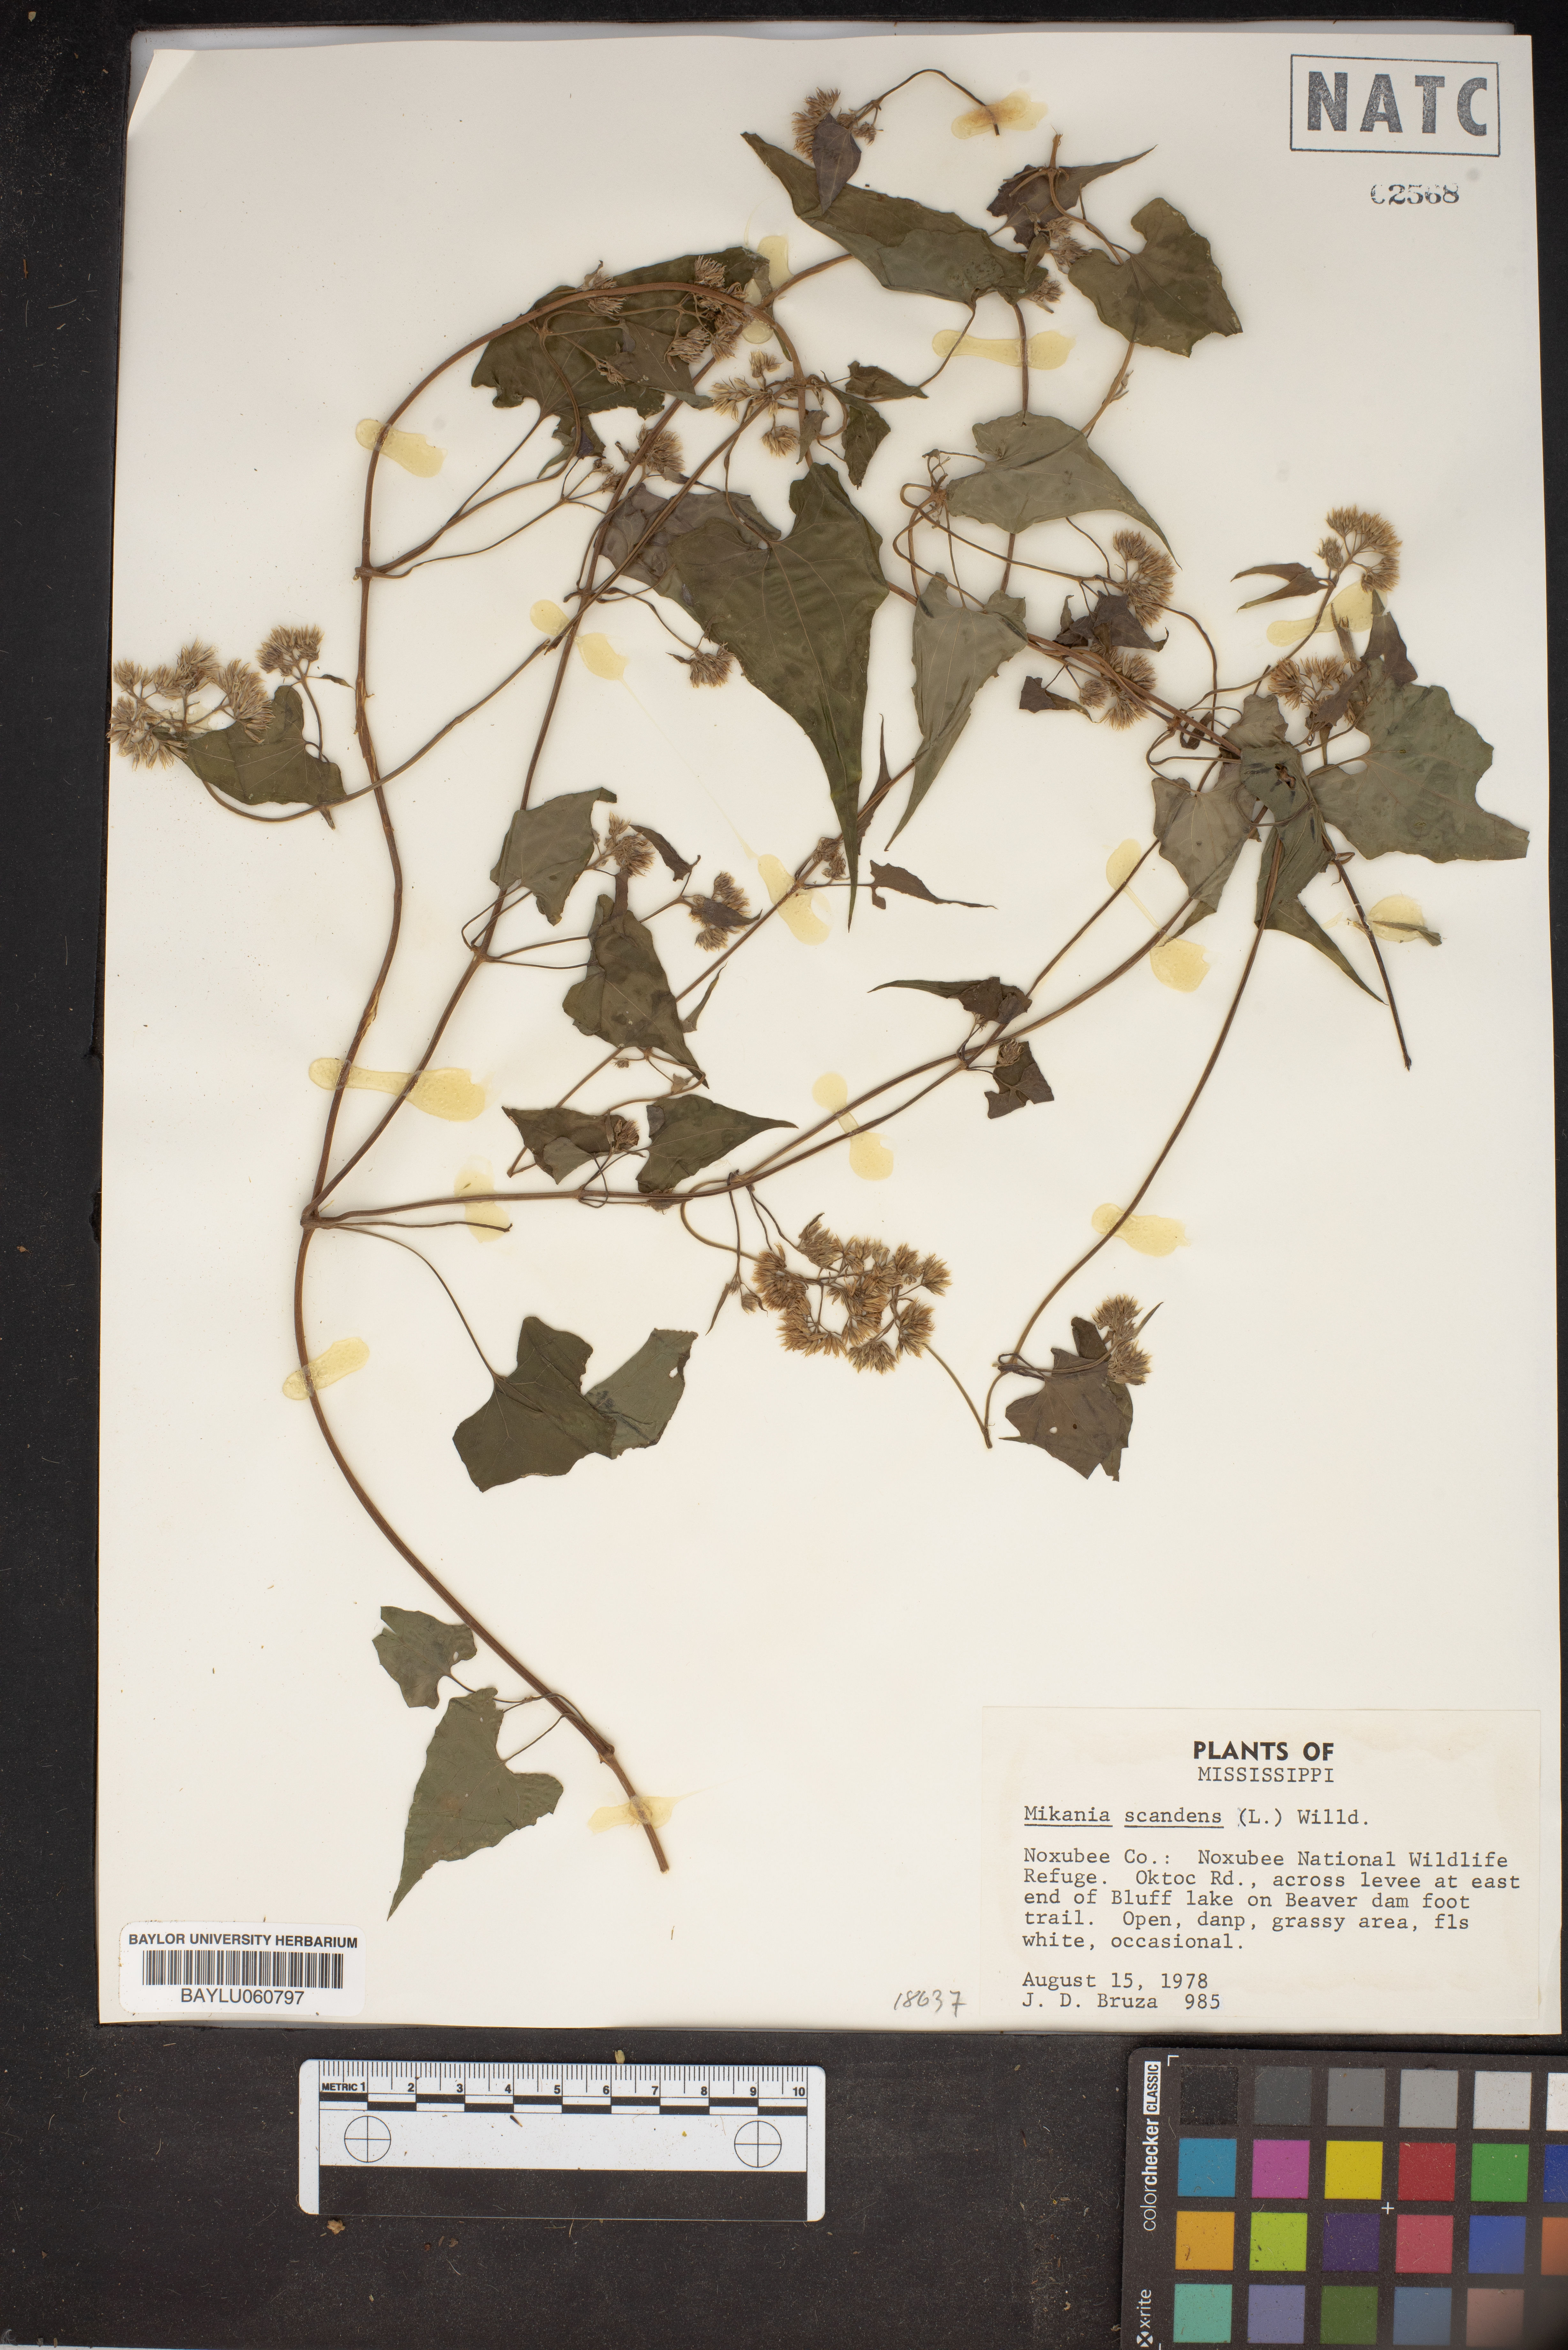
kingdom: Plantae
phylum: Tracheophyta
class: Magnoliopsida
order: Asterales
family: Asteraceae
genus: Mikania
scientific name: Mikania scandens
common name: Climbing hempvine
